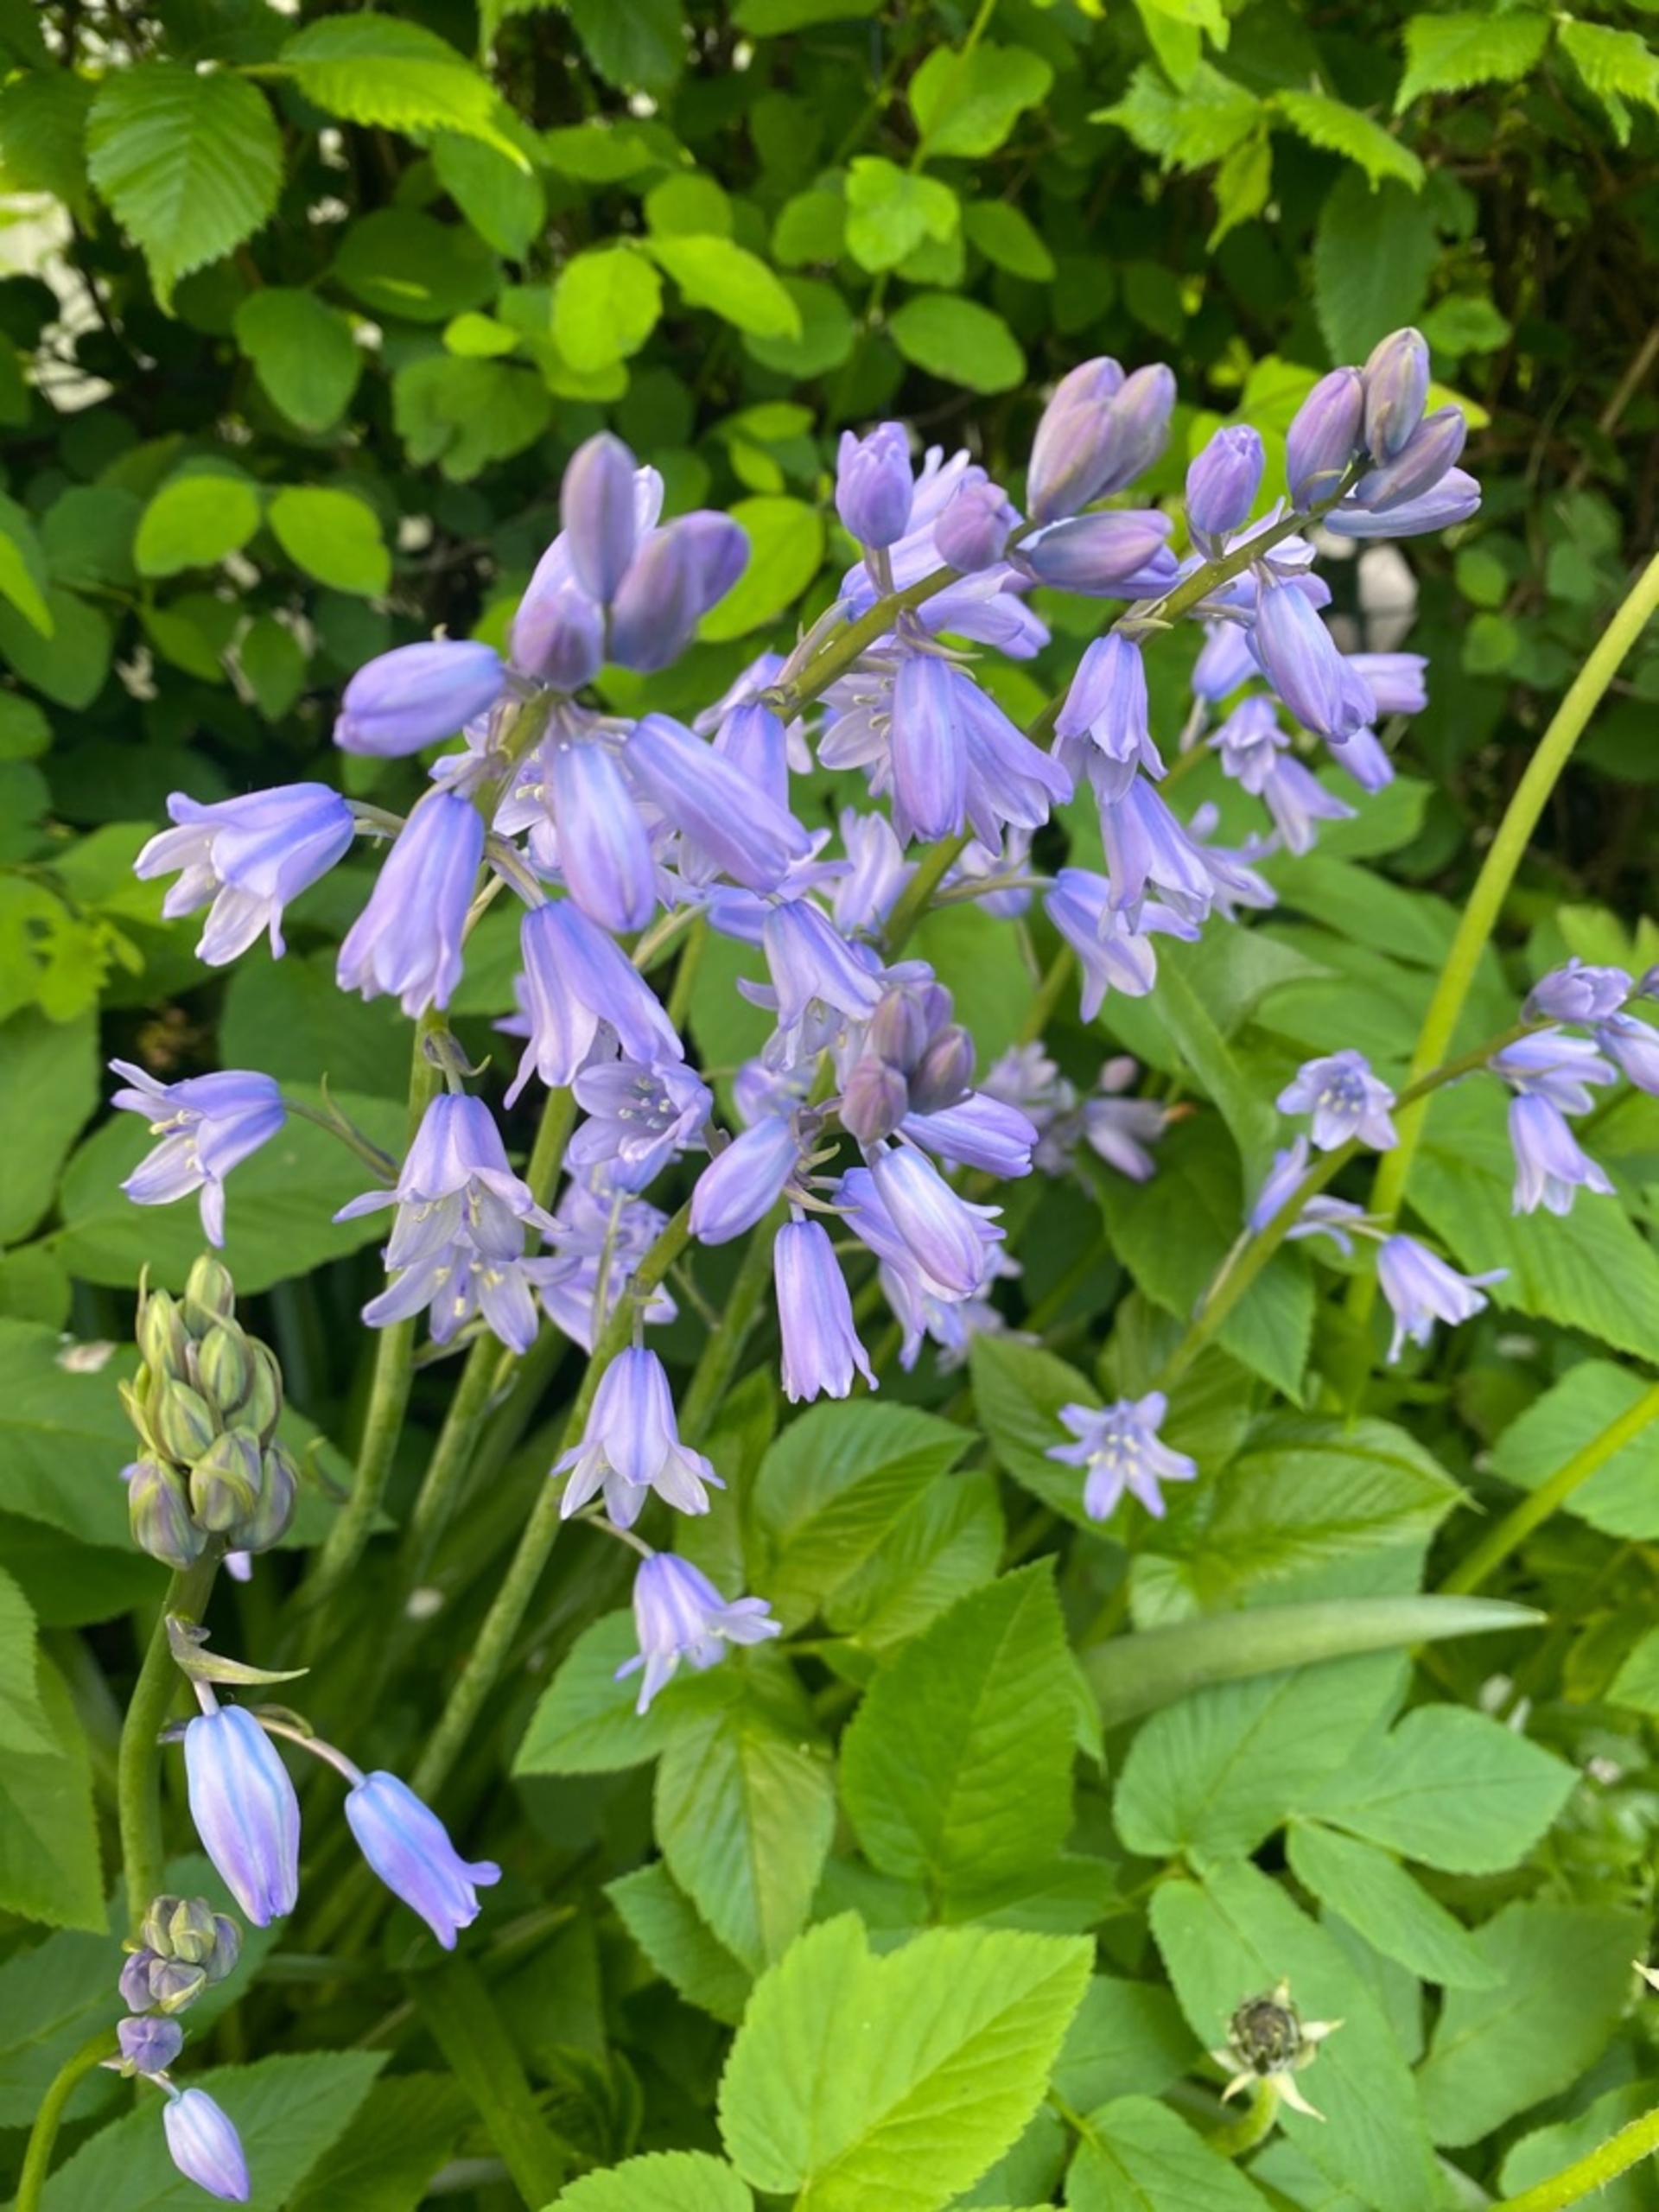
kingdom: Plantae
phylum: Tracheophyta
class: Liliopsida
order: Asparagales
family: Asparagaceae
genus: Hyacinthoides
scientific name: Hyacinthoides massartiana
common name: Hybrid-klokkeskilla
